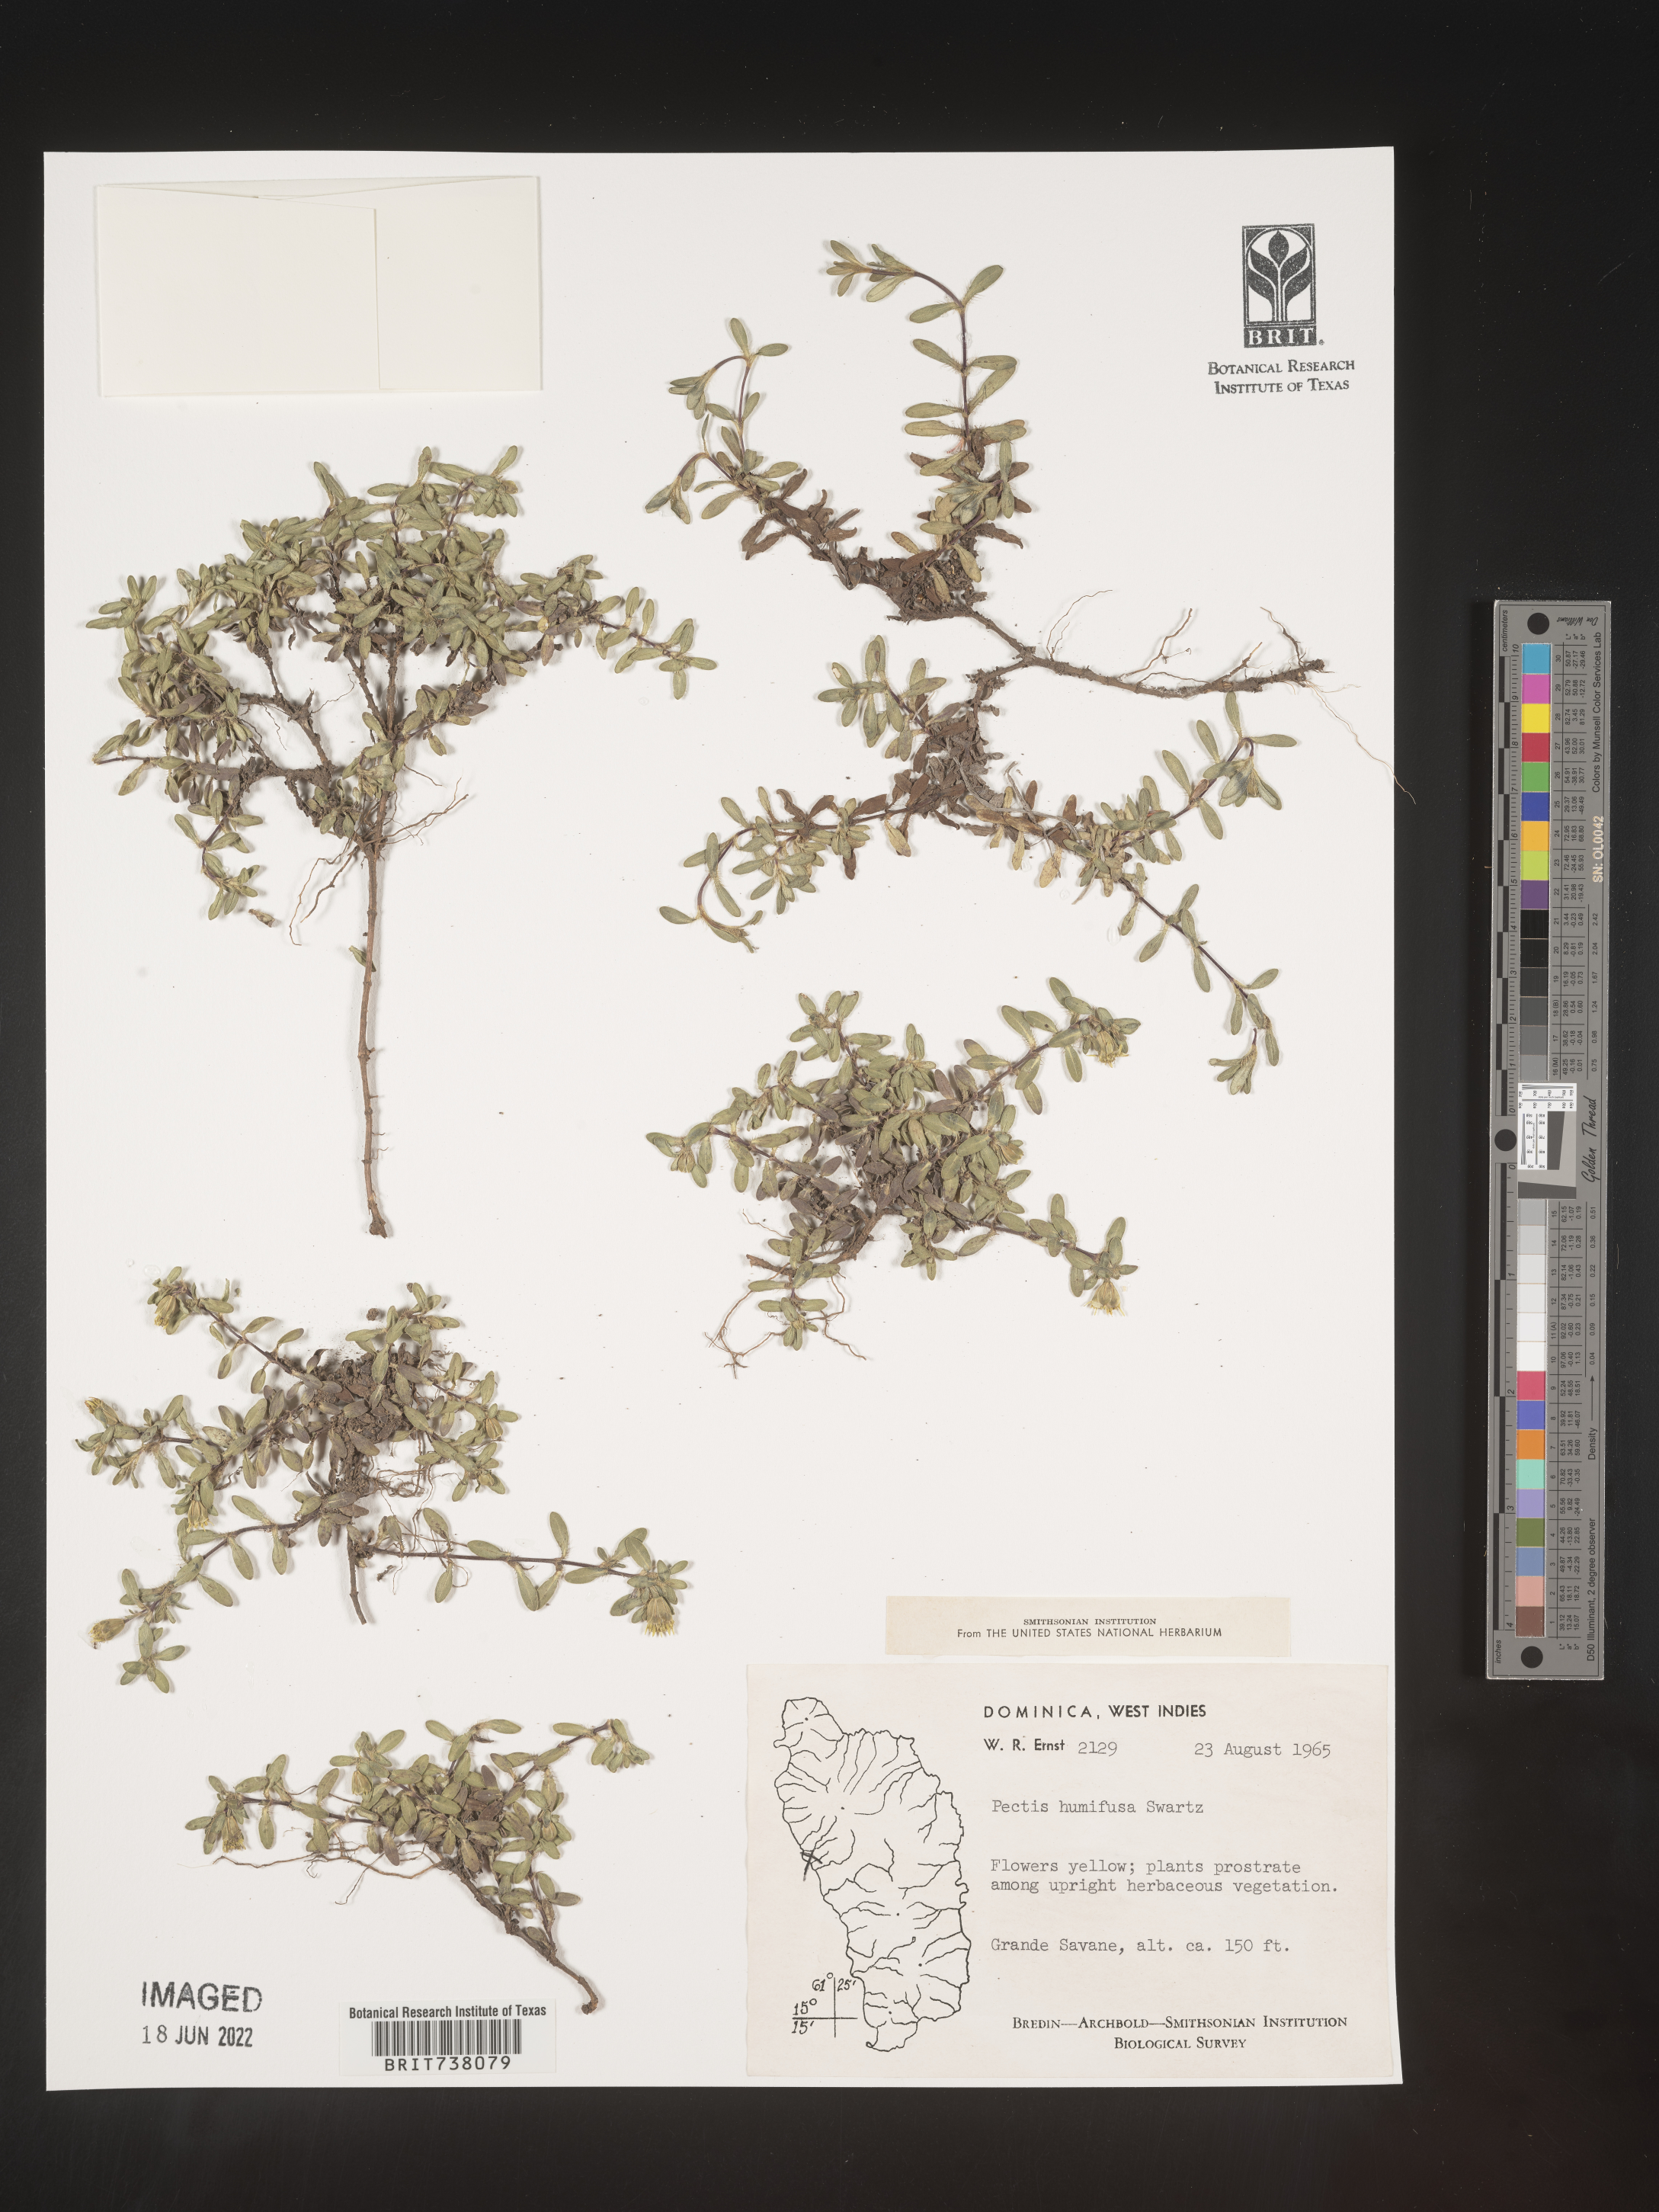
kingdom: Plantae
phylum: Tracheophyta
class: Magnoliopsida
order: Asterales
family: Asteraceae
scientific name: Asteraceae
